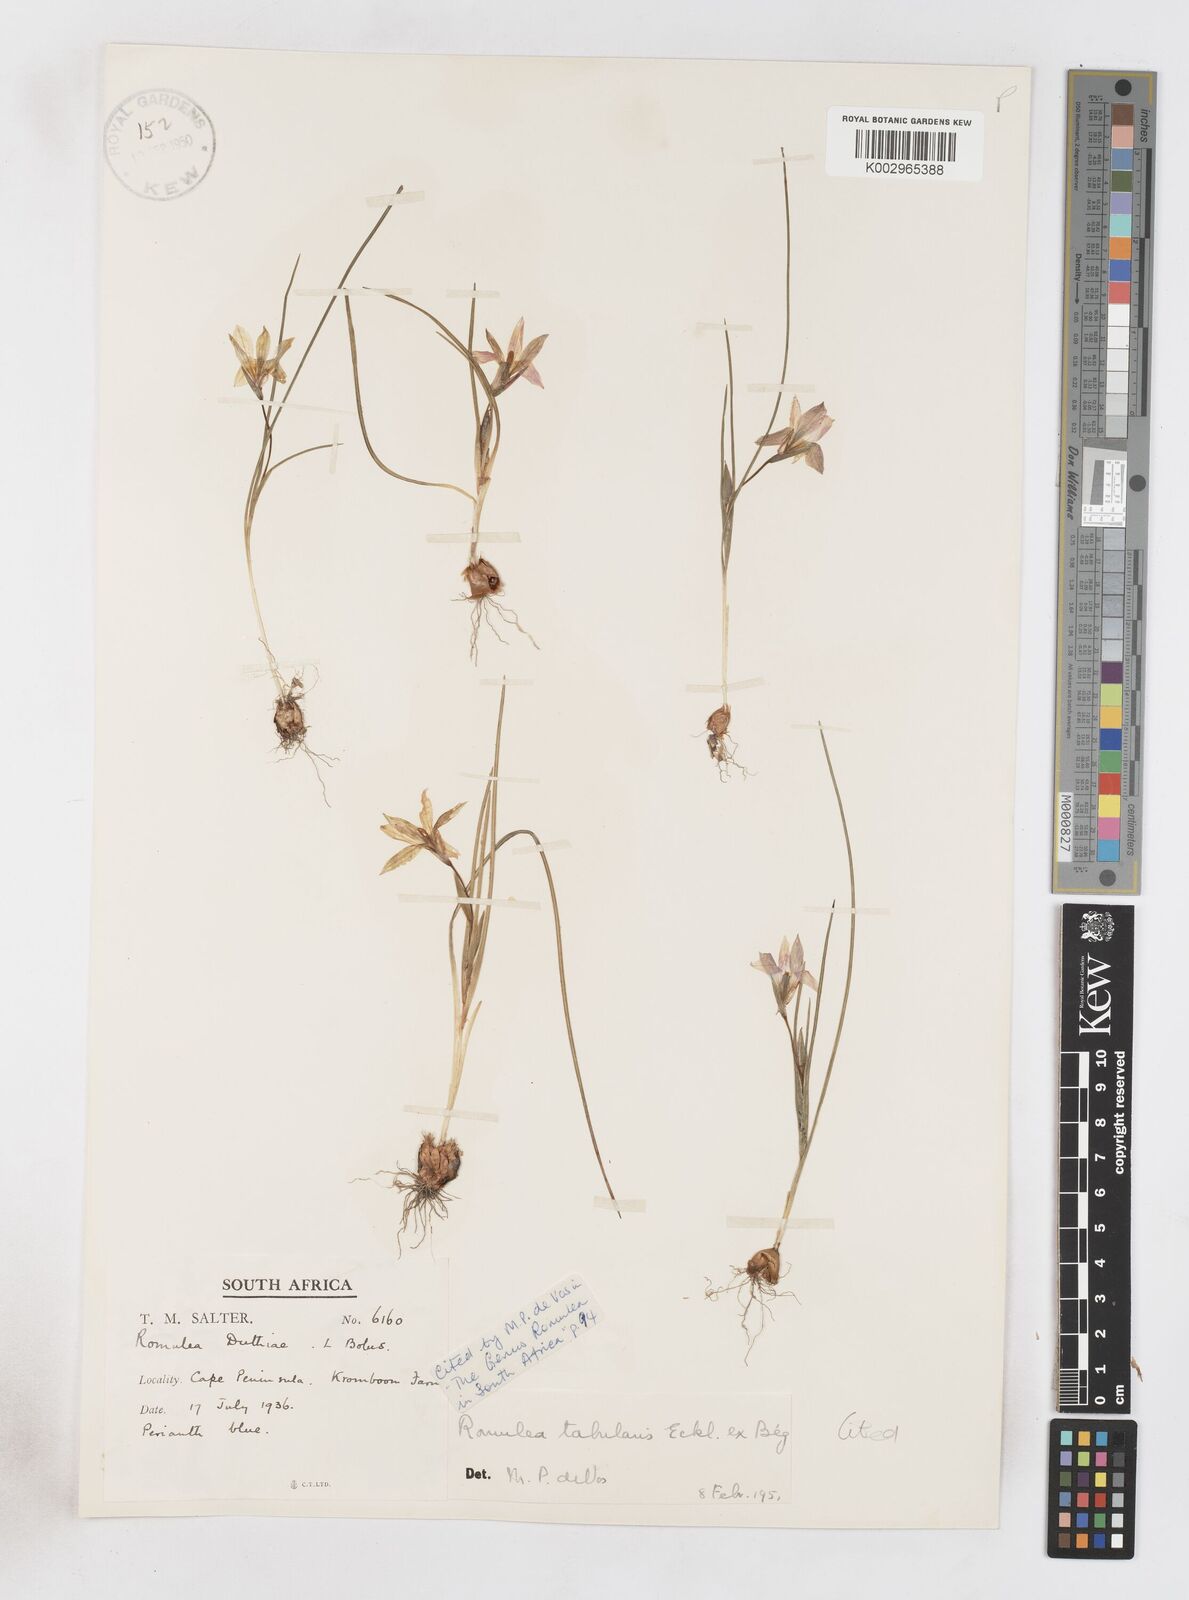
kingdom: Plantae
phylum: Tracheophyta
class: Liliopsida
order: Asparagales
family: Iridaceae
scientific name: Iridaceae
